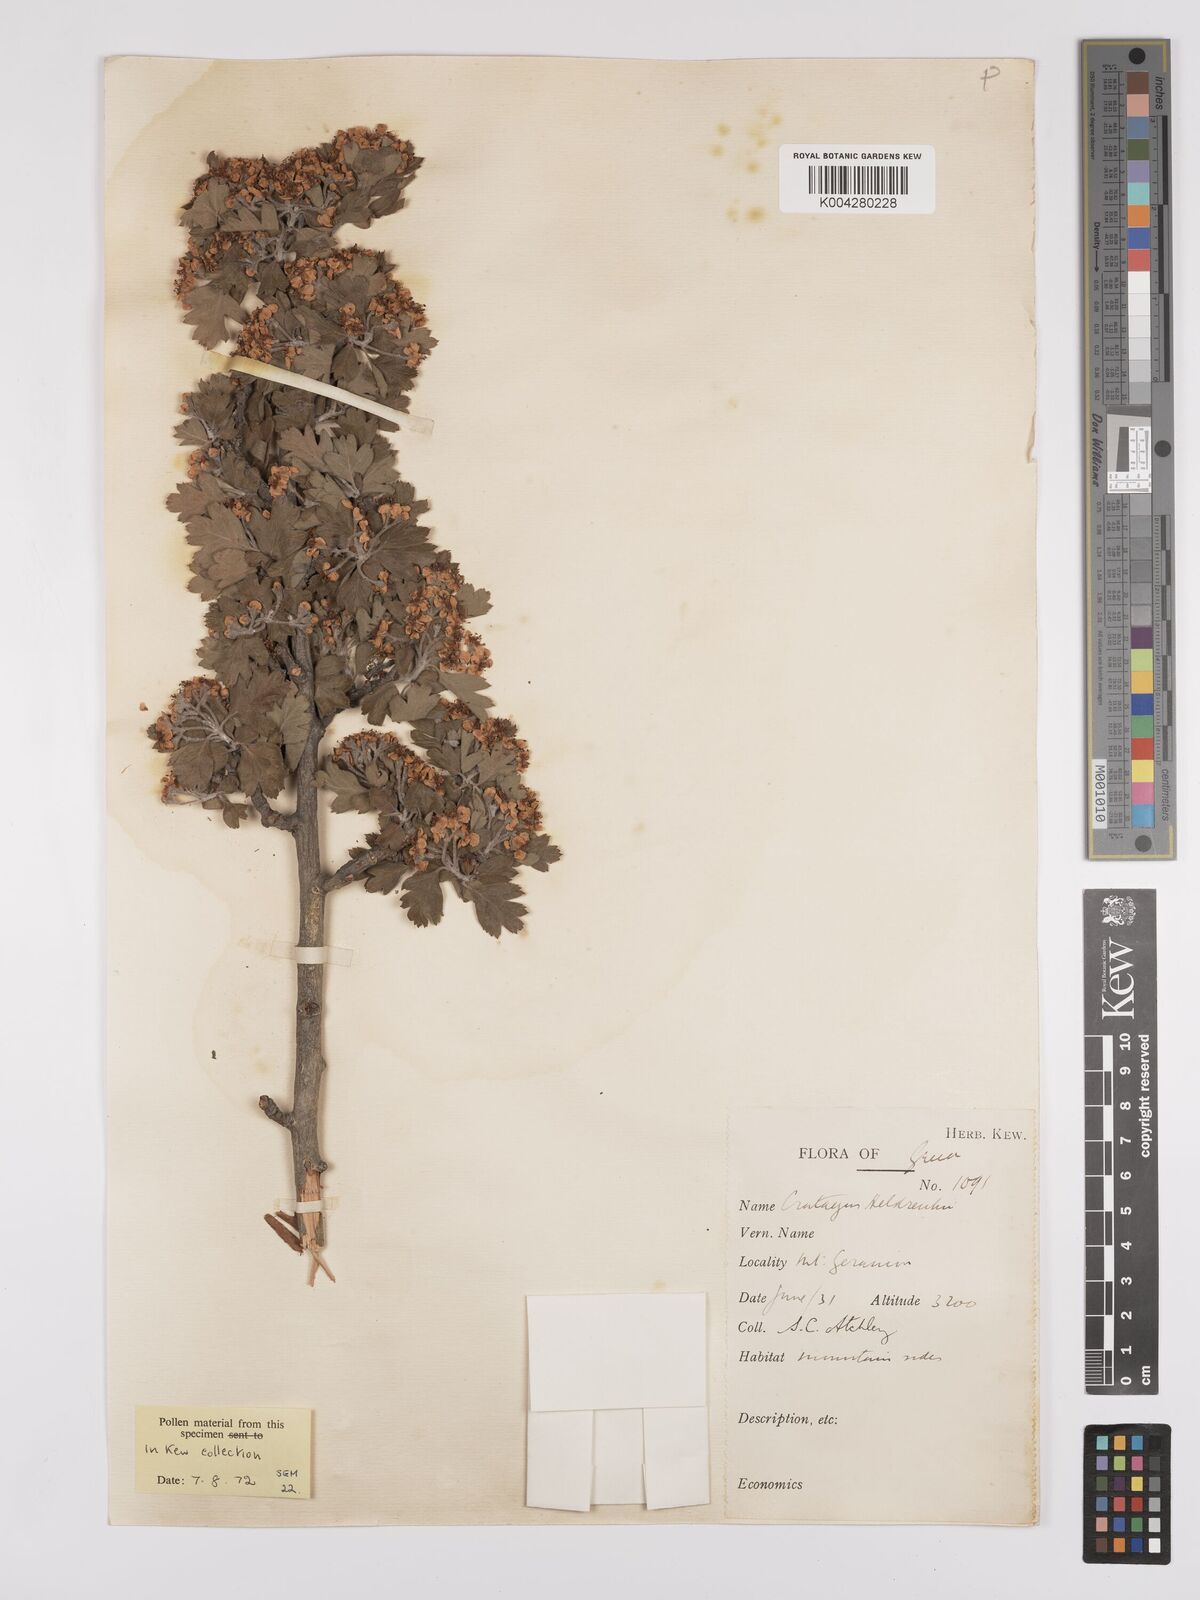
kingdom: Plantae
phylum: Tracheophyta
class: Magnoliopsida
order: Rosales
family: Rosaceae
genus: Crataegus
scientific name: Crataegus heldreichii
